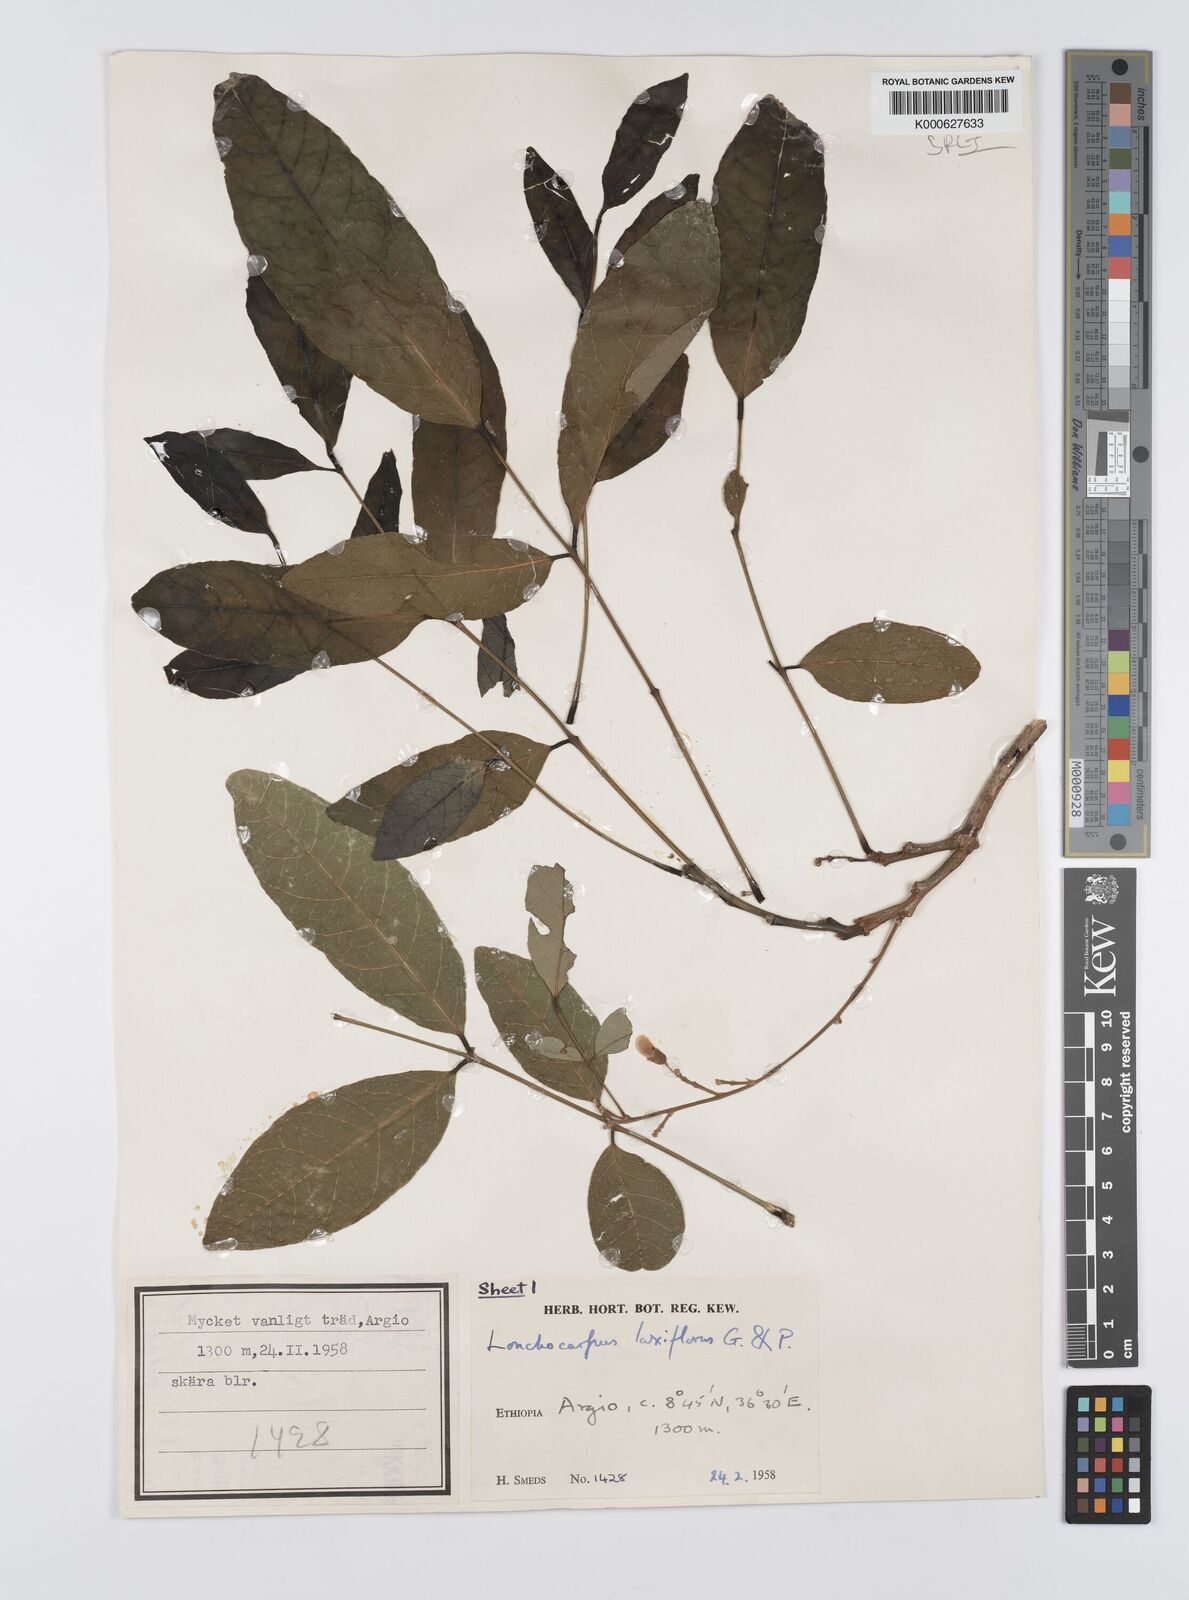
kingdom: Plantae
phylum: Tracheophyta
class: Magnoliopsida
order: Fabales
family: Fabaceae
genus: Philenoptera
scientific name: Philenoptera laxiflora
